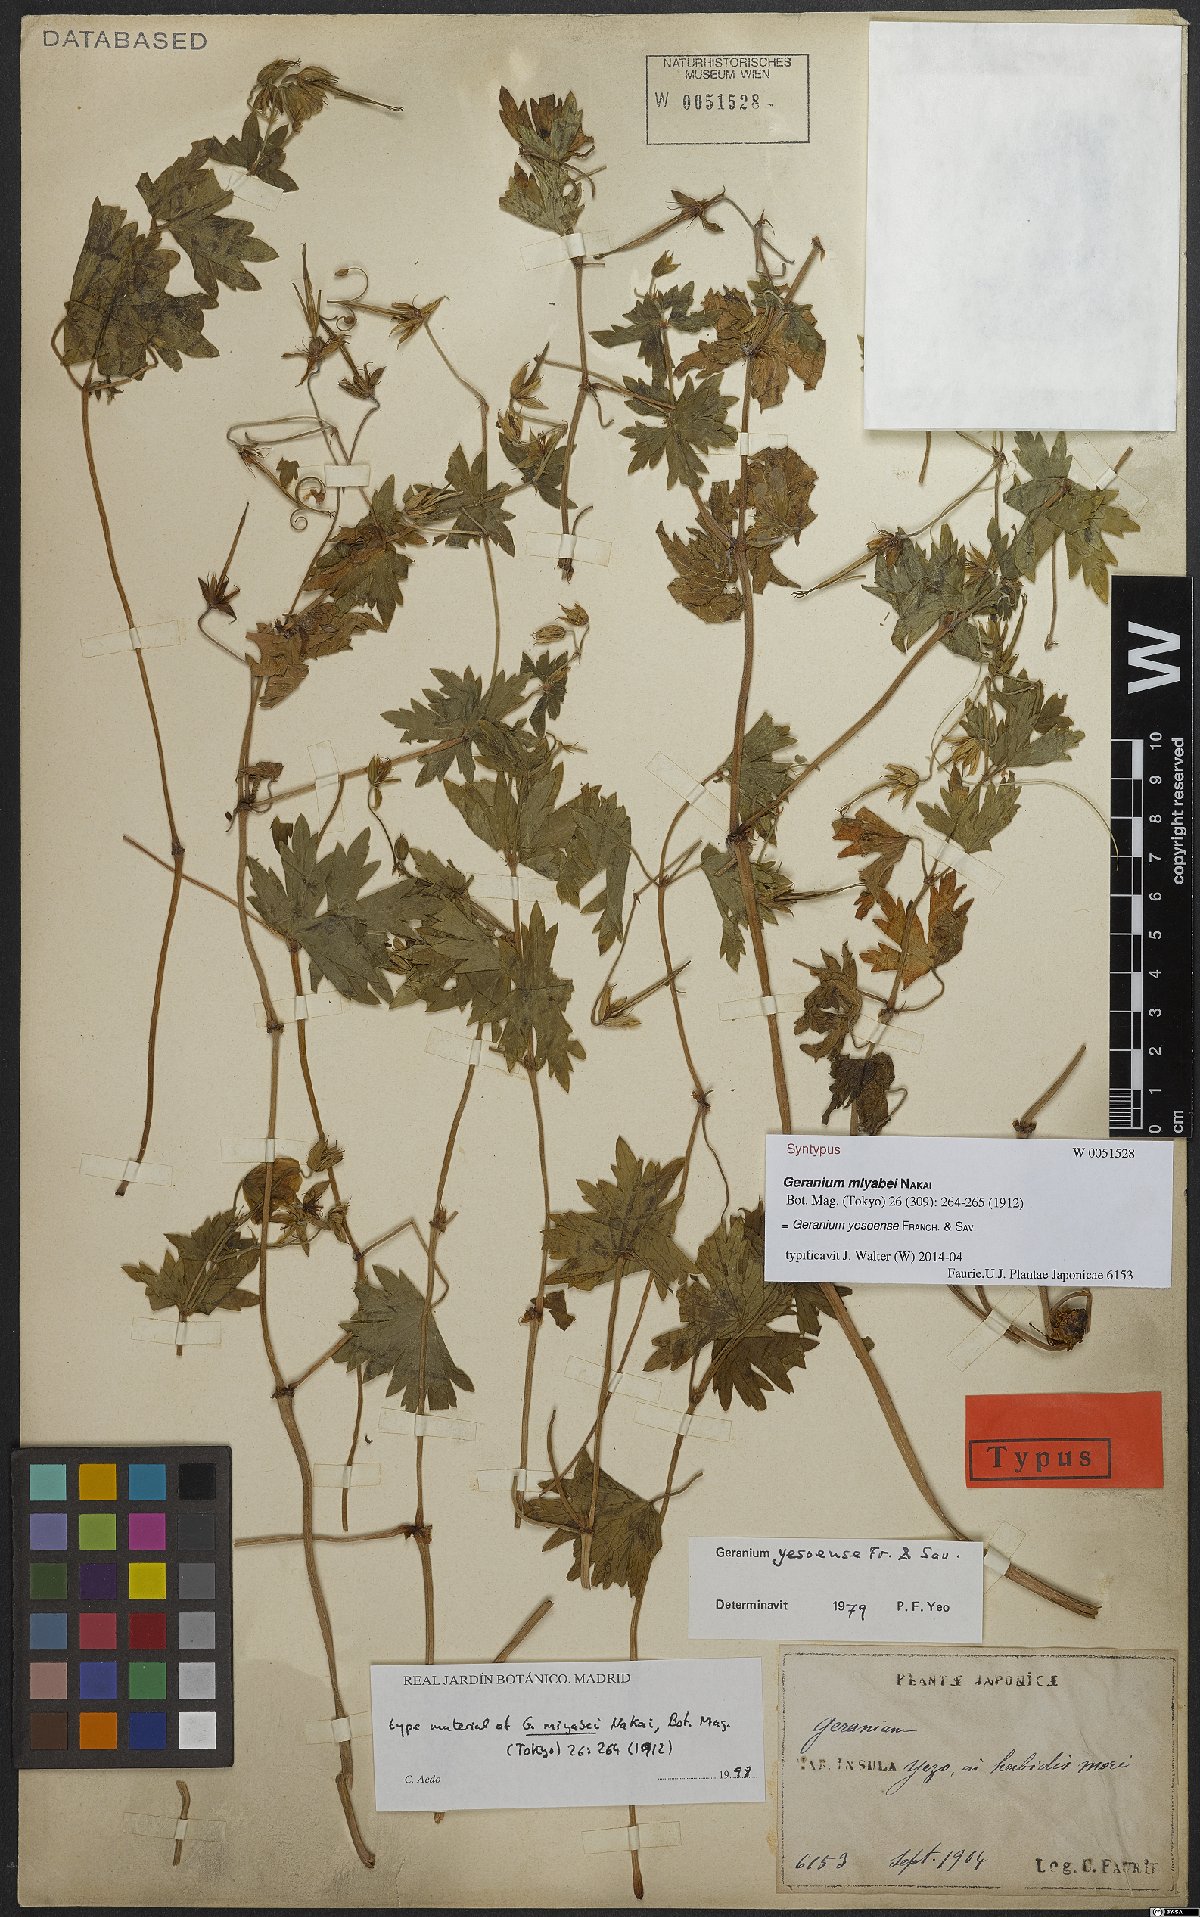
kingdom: Plantae
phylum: Tracheophyta
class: Magnoliopsida
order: Geraniales
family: Geraniaceae
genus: Geranium
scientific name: Geranium yesoense
